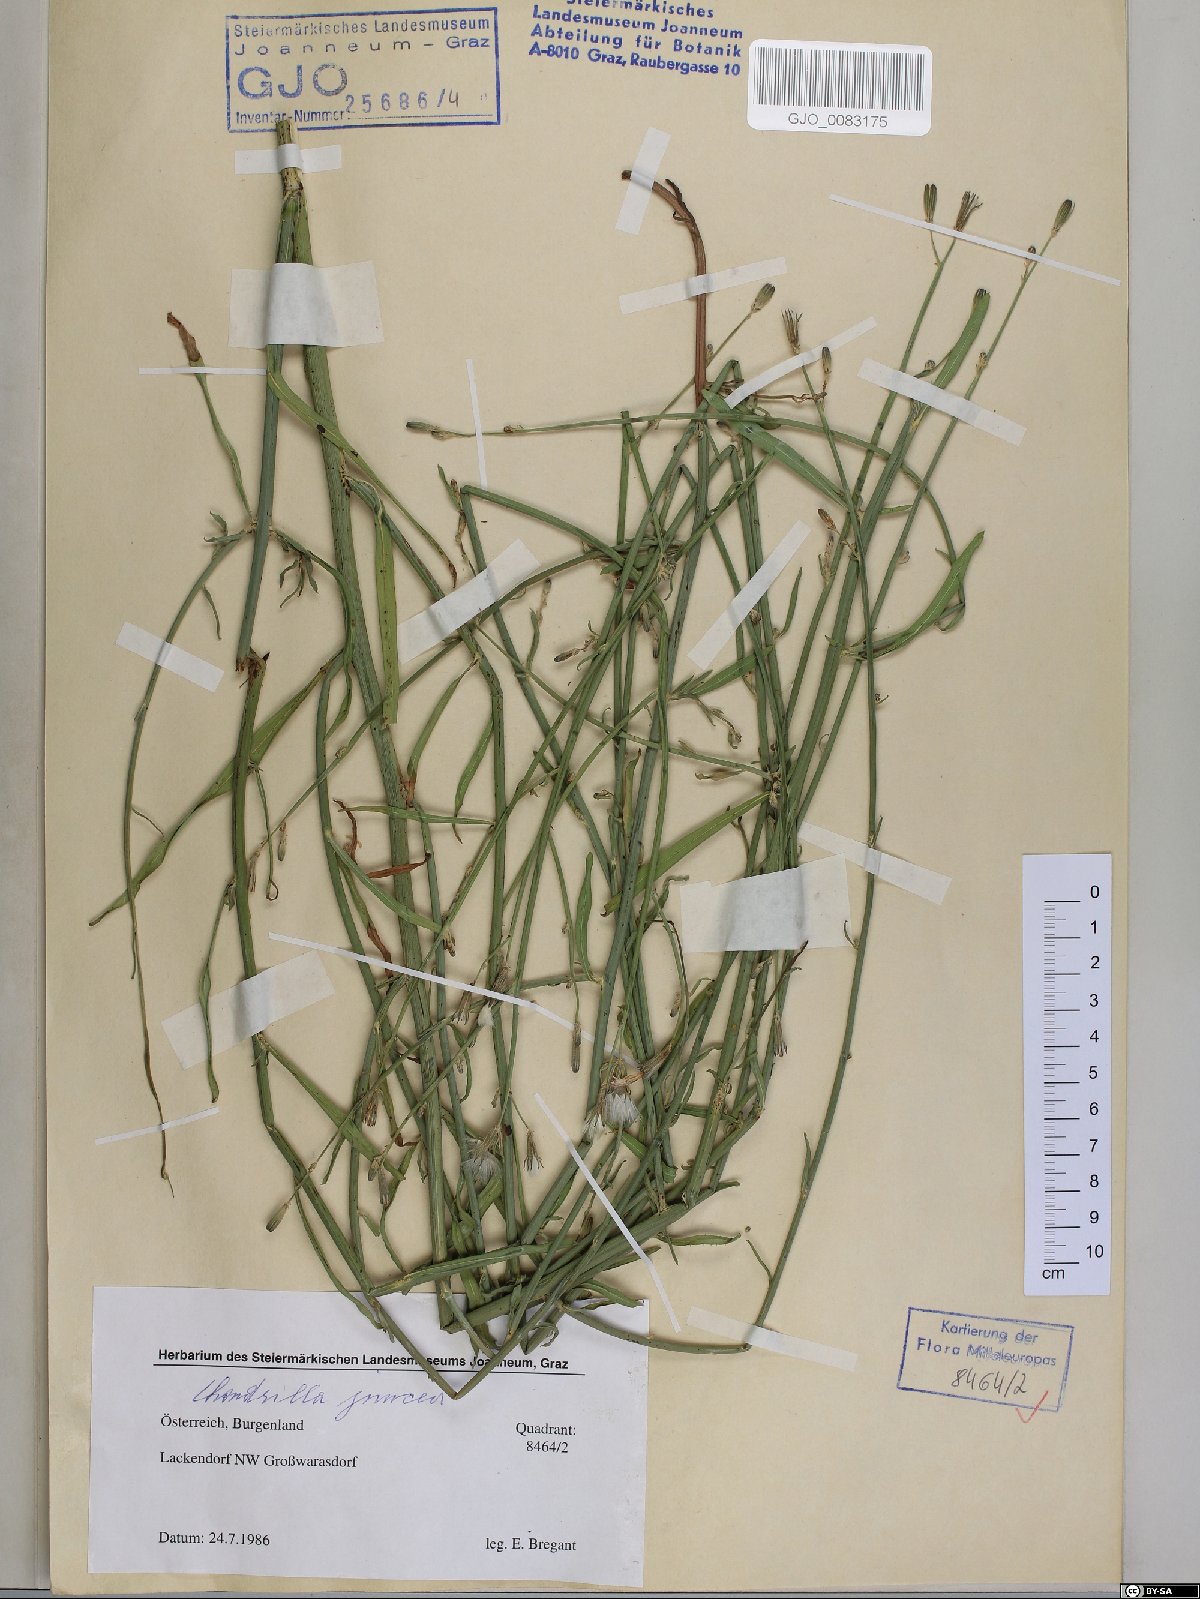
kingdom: Plantae
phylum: Tracheophyta
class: Magnoliopsida
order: Asterales
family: Asteraceae
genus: Chondrilla
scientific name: Chondrilla juncea
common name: Skeleton weed
